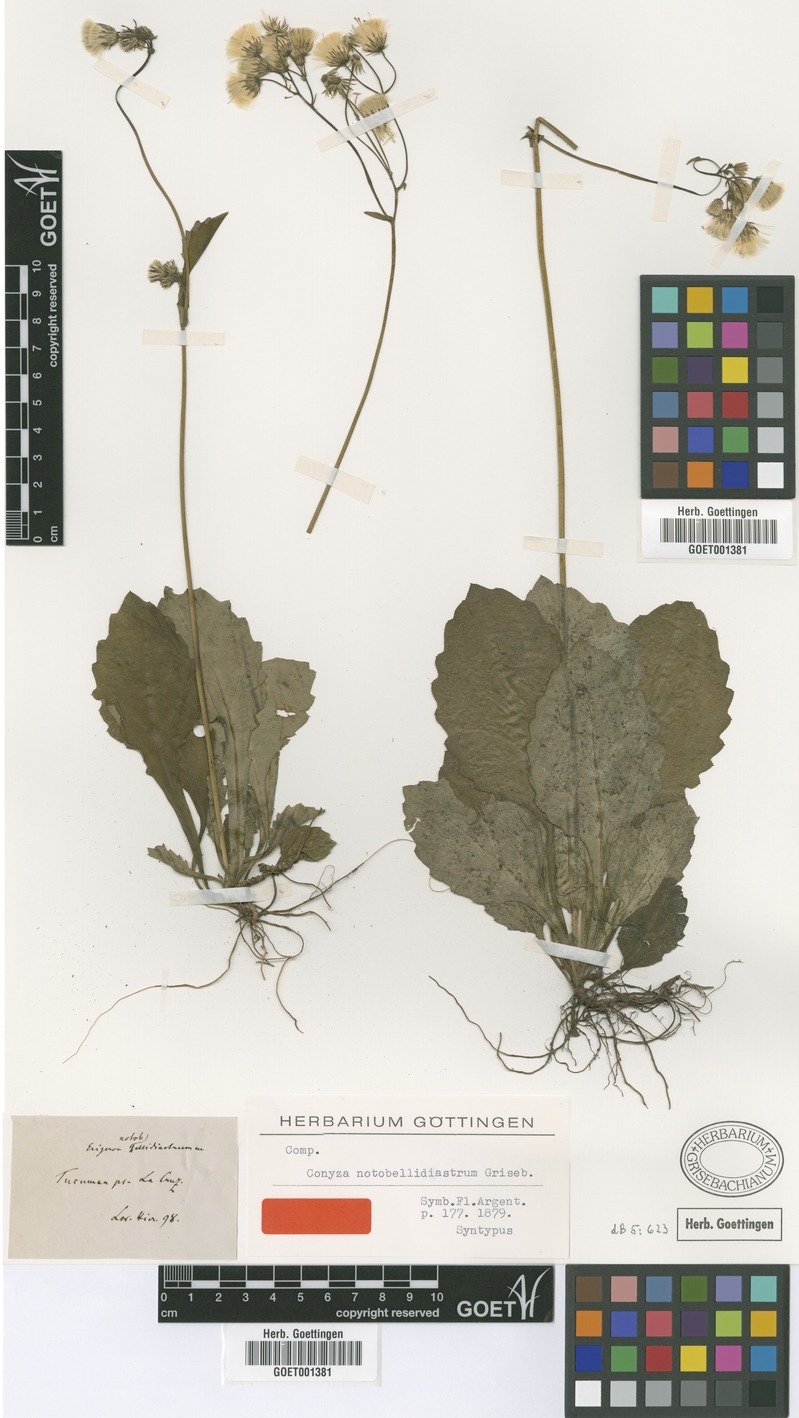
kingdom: Plantae
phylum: Tracheophyta
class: Magnoliopsida
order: Asterales
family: Asteraceae
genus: Exostigma
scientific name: Exostigma notobellidiastrum
